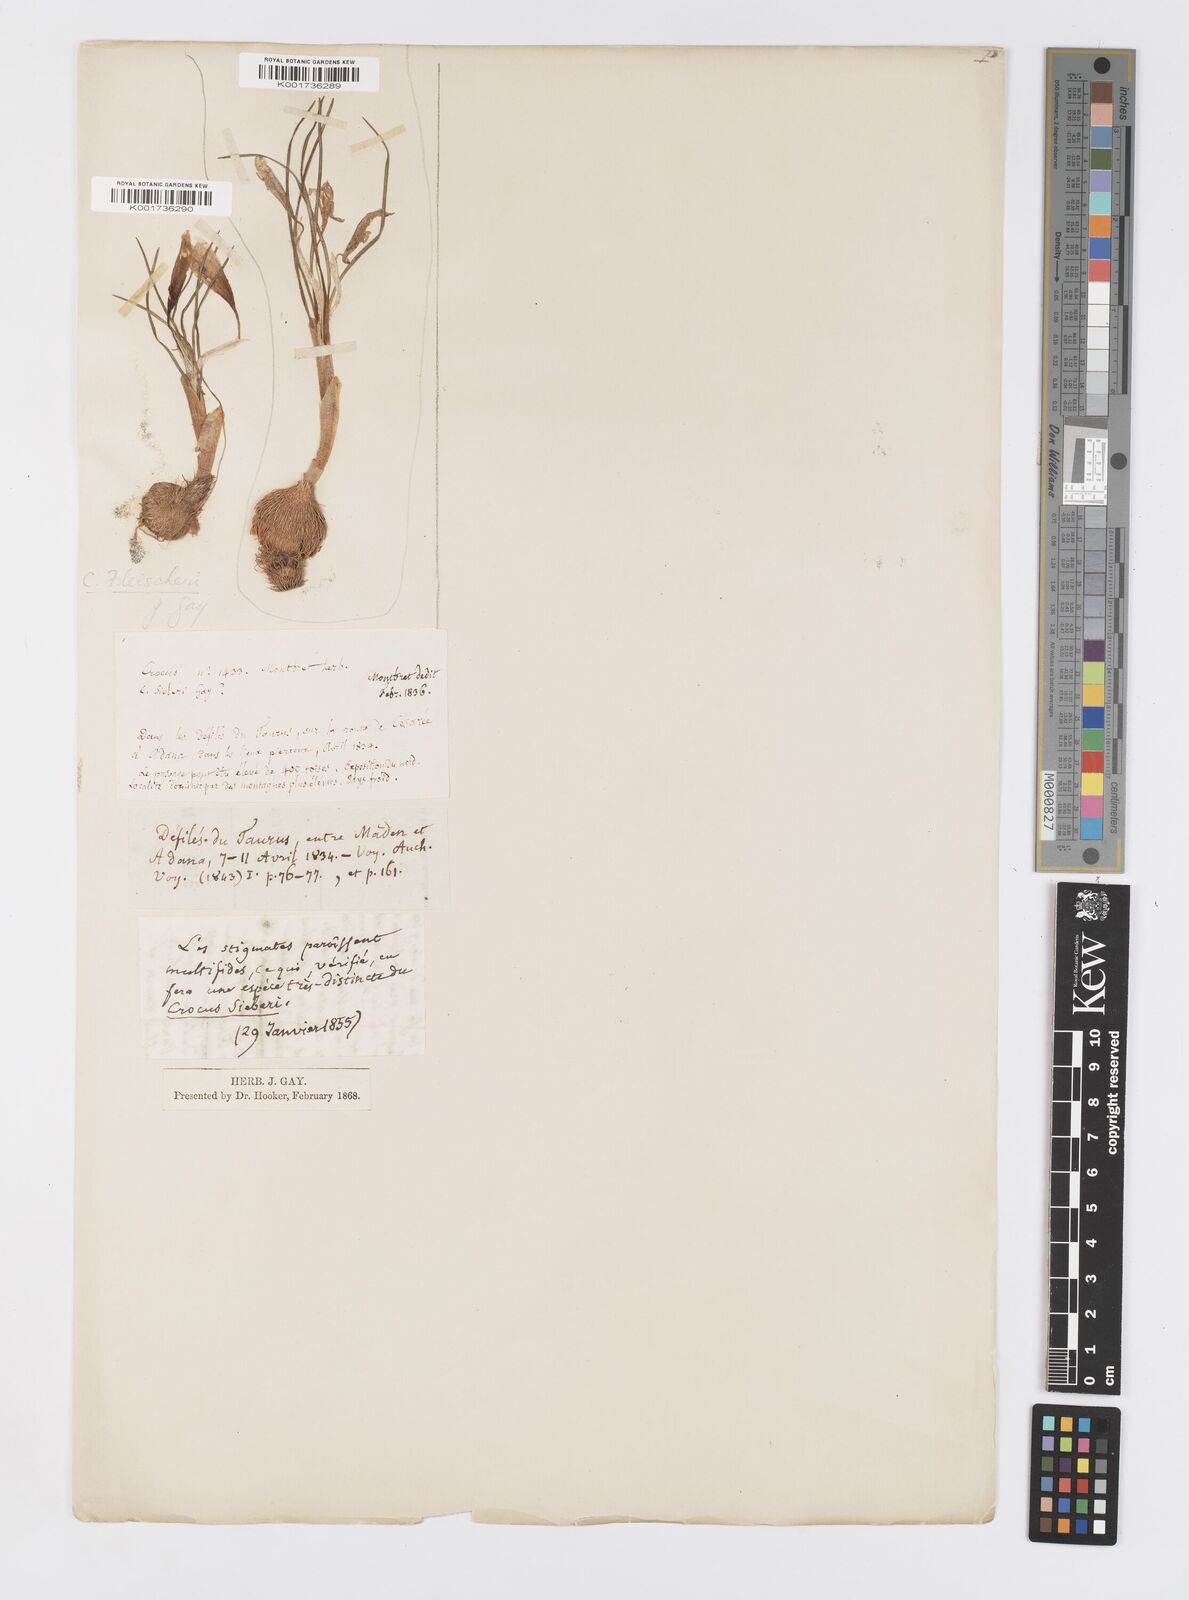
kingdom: Plantae
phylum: Tracheophyta
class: Liliopsida
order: Asparagales
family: Iridaceae
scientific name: Iridaceae
